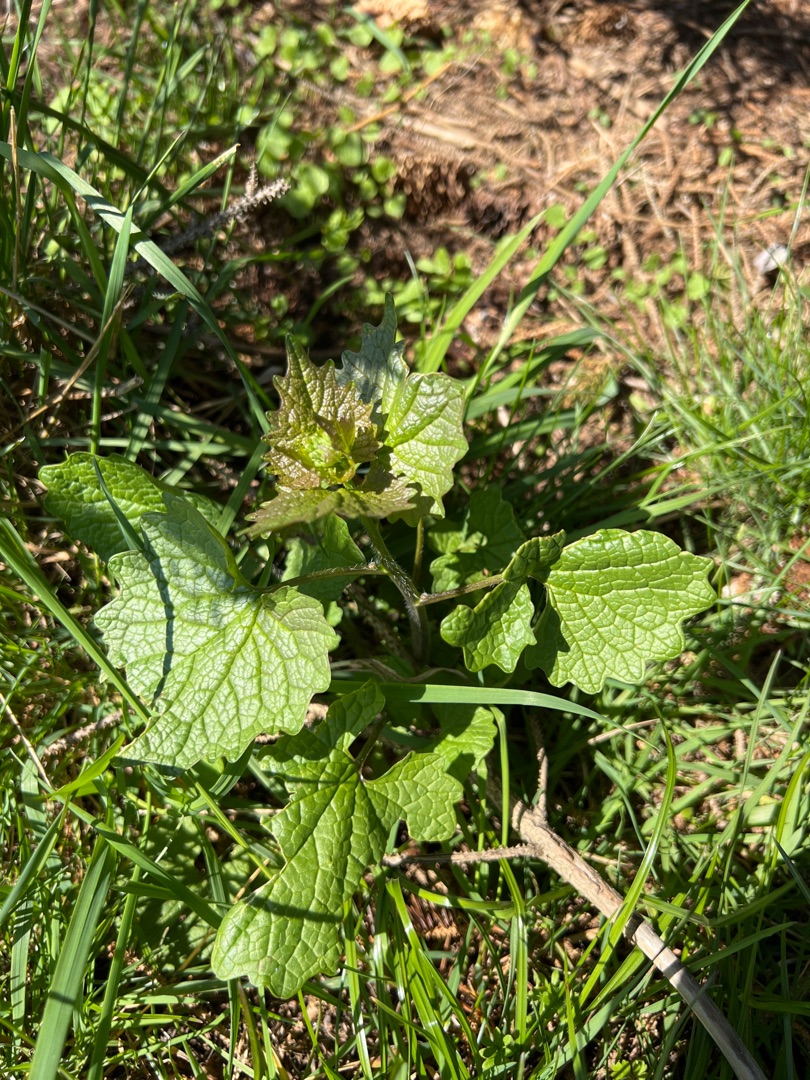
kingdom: Plantae
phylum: Tracheophyta
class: Magnoliopsida
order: Brassicales
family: Brassicaceae
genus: Alliaria
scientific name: Alliaria petiolata
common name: Løgkarse
